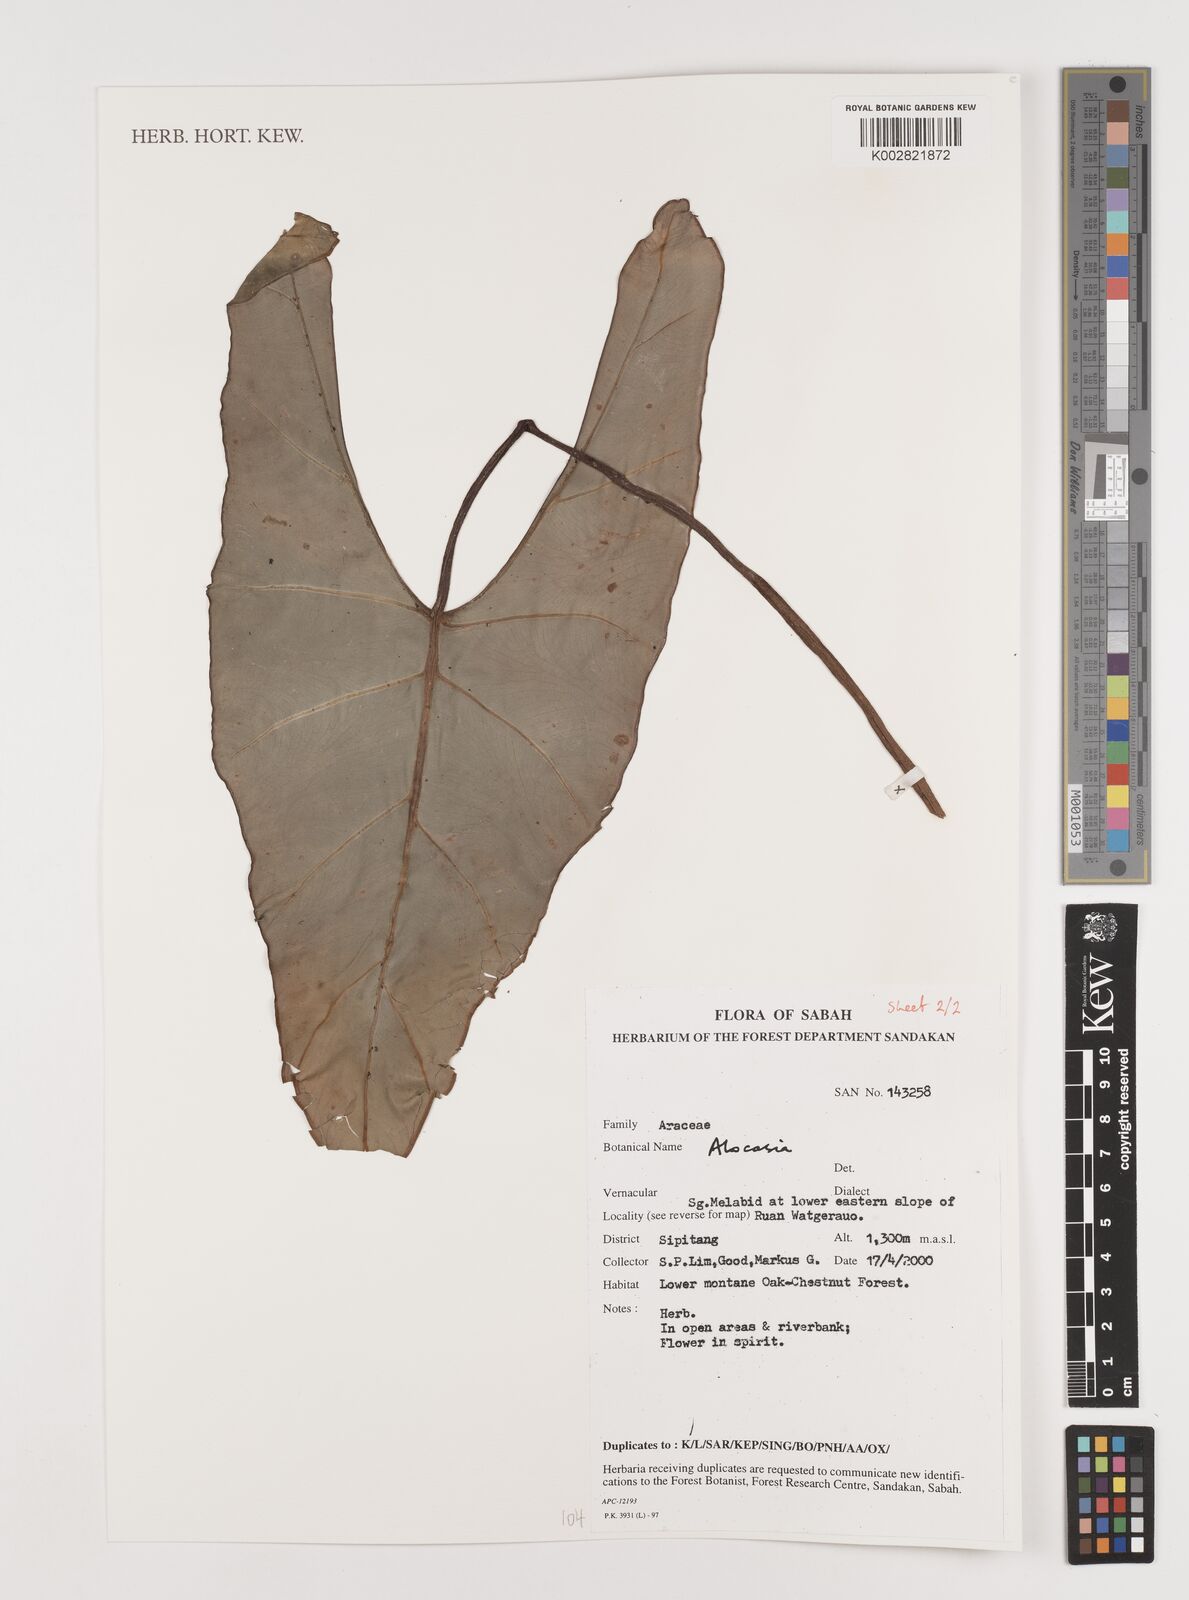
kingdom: Plantae
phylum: Tracheophyta
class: Liliopsida
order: Alismatales
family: Araceae
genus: Alocasia
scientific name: Alocasia
